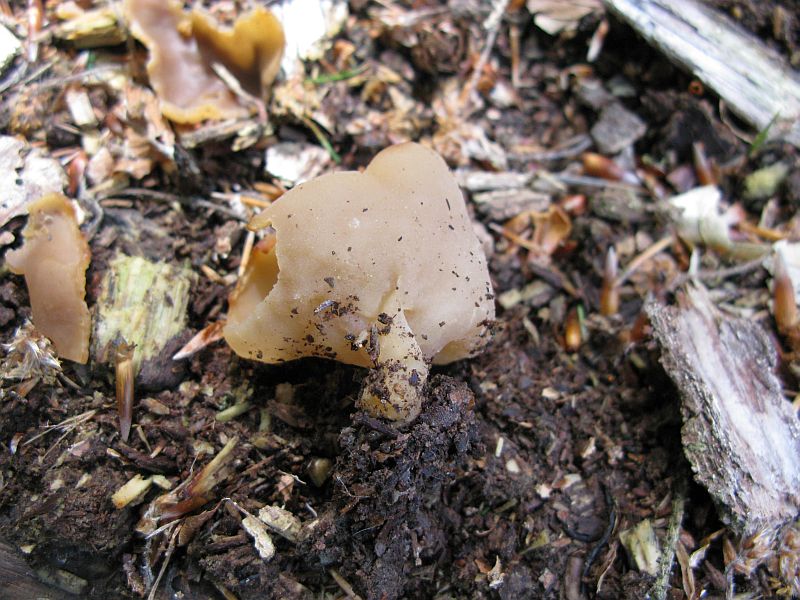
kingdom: Fungi
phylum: Ascomycota
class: Pezizomycetes
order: Pezizales
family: Pezizaceae
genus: Peziza
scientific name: Peziza varia
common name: Ved-bægersvamp
